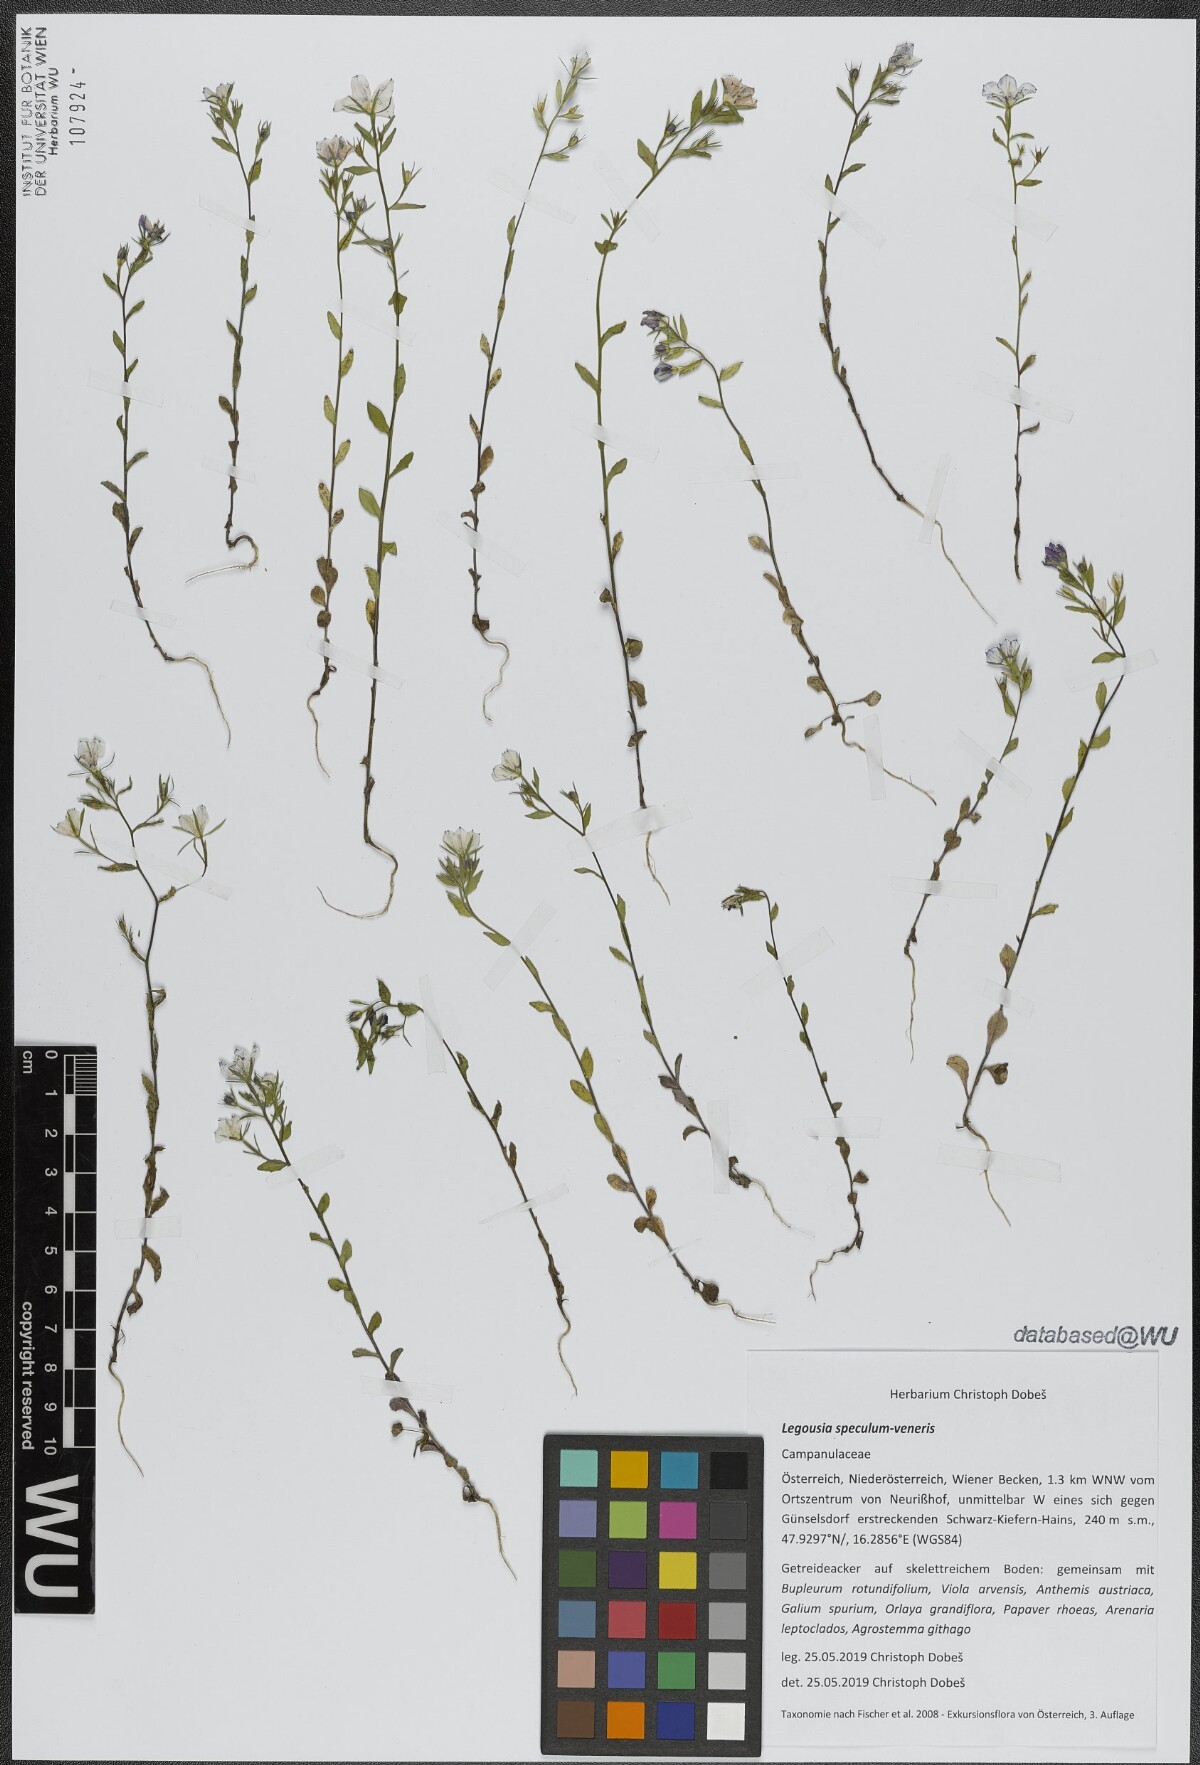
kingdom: Plantae
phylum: Tracheophyta
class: Magnoliopsida
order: Asterales
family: Campanulaceae
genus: Legousia
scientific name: Legousia speculum-veneris
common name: Large venus's-looking-glass
